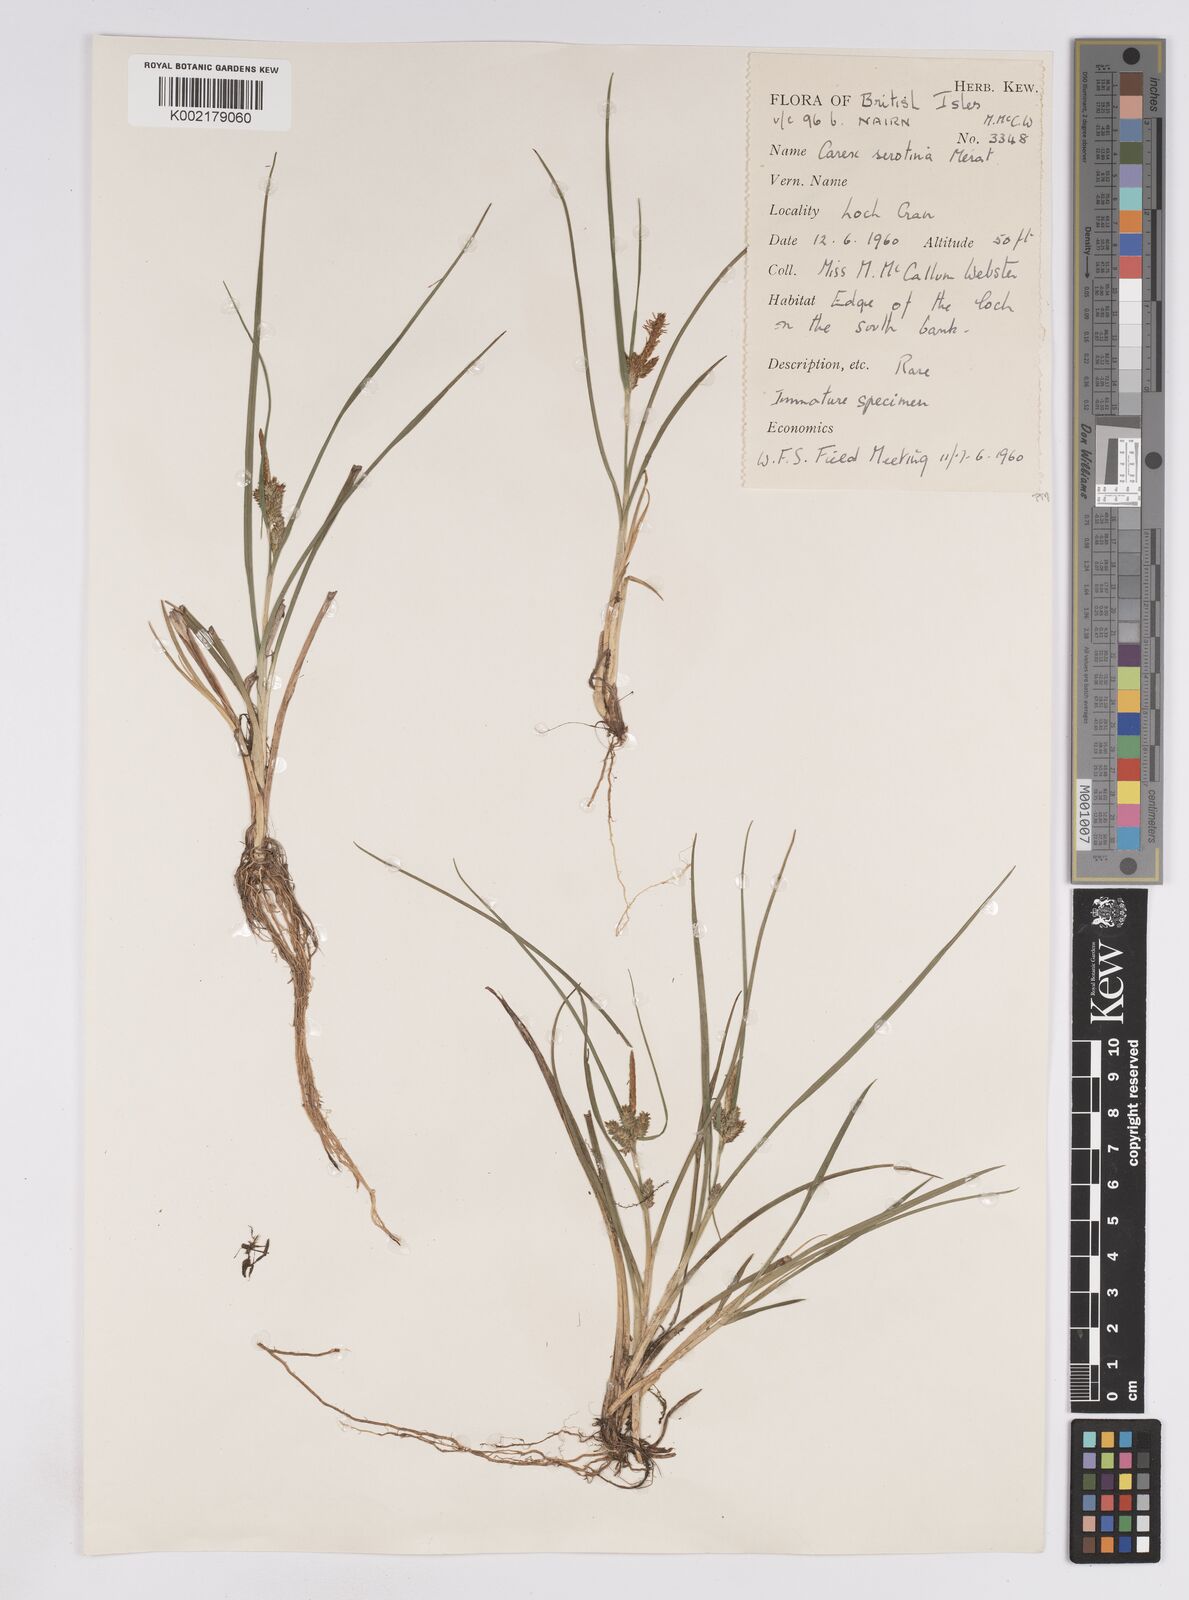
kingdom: Plantae
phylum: Tracheophyta
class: Liliopsida
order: Poales
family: Cyperaceae
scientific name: Cyperaceae
